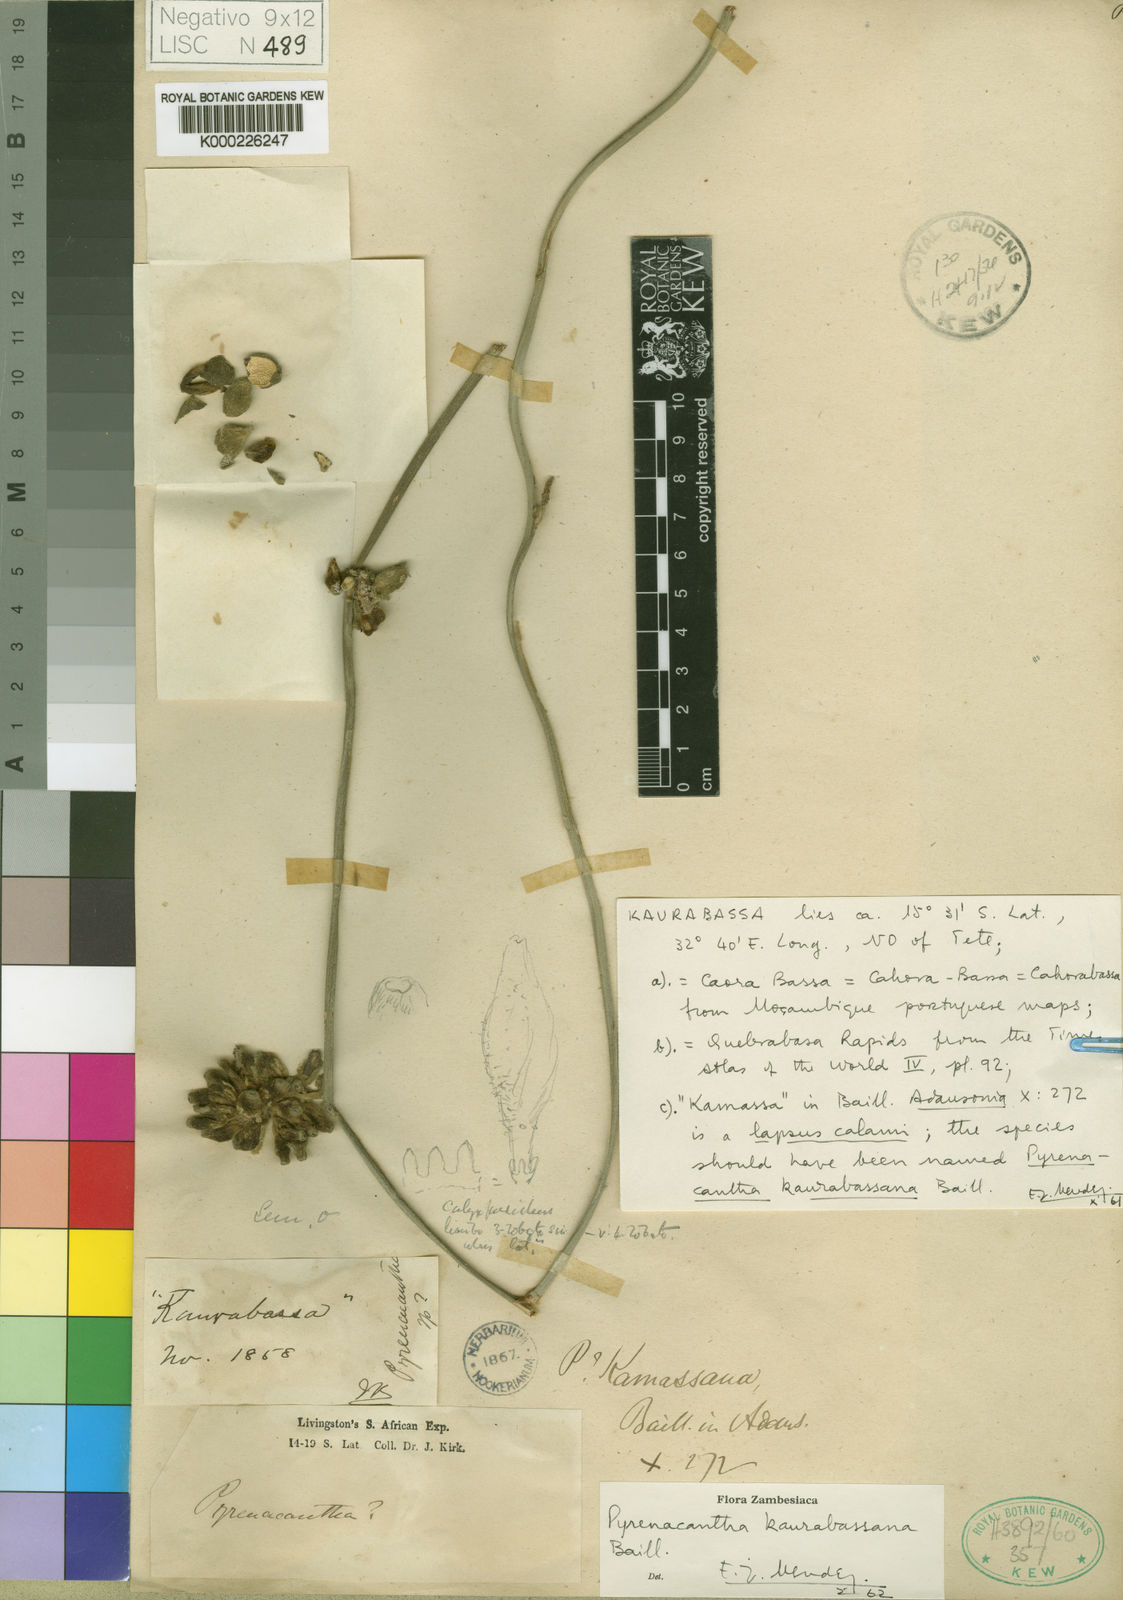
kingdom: Plantae
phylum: Tracheophyta
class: Magnoliopsida
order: Icacinales
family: Icacinaceae
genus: Pyrenacantha
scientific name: Pyrenacantha kaurabassana
